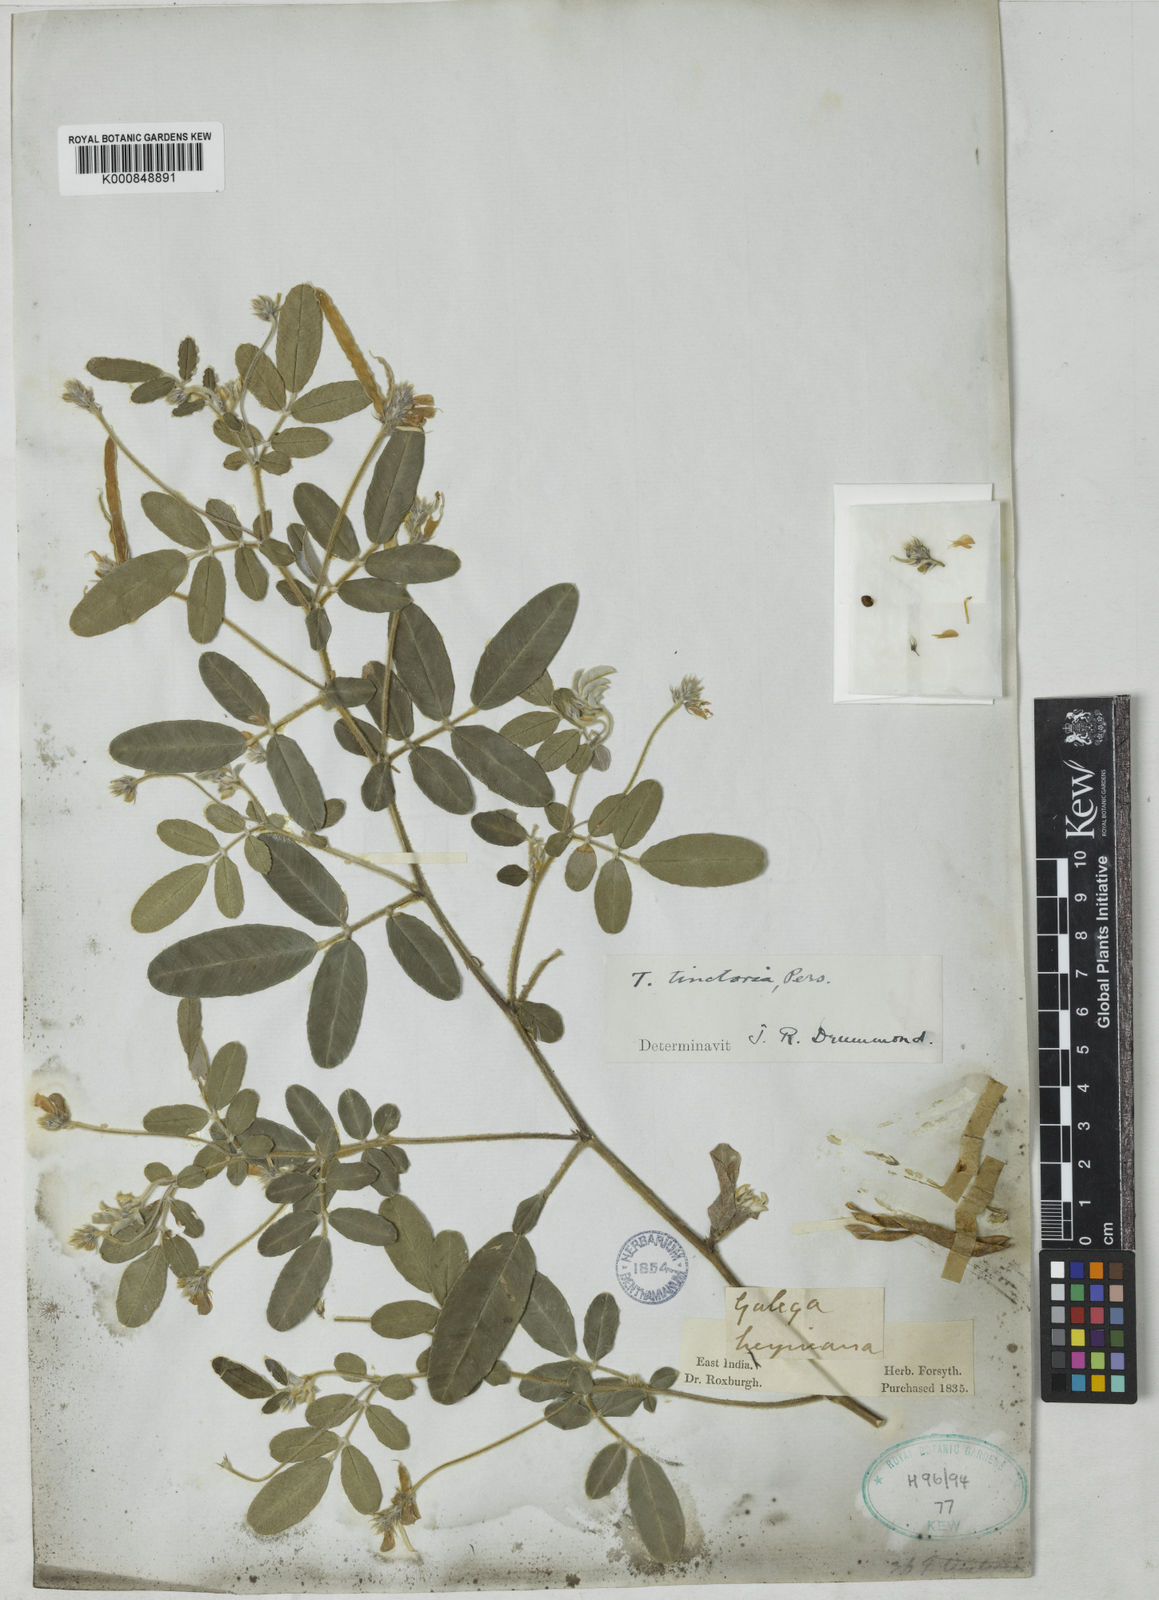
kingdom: Plantae
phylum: Tracheophyta
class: Magnoliopsida
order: Fabales
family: Fabaceae
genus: Tephrosia
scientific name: Tephrosia tinctoria
